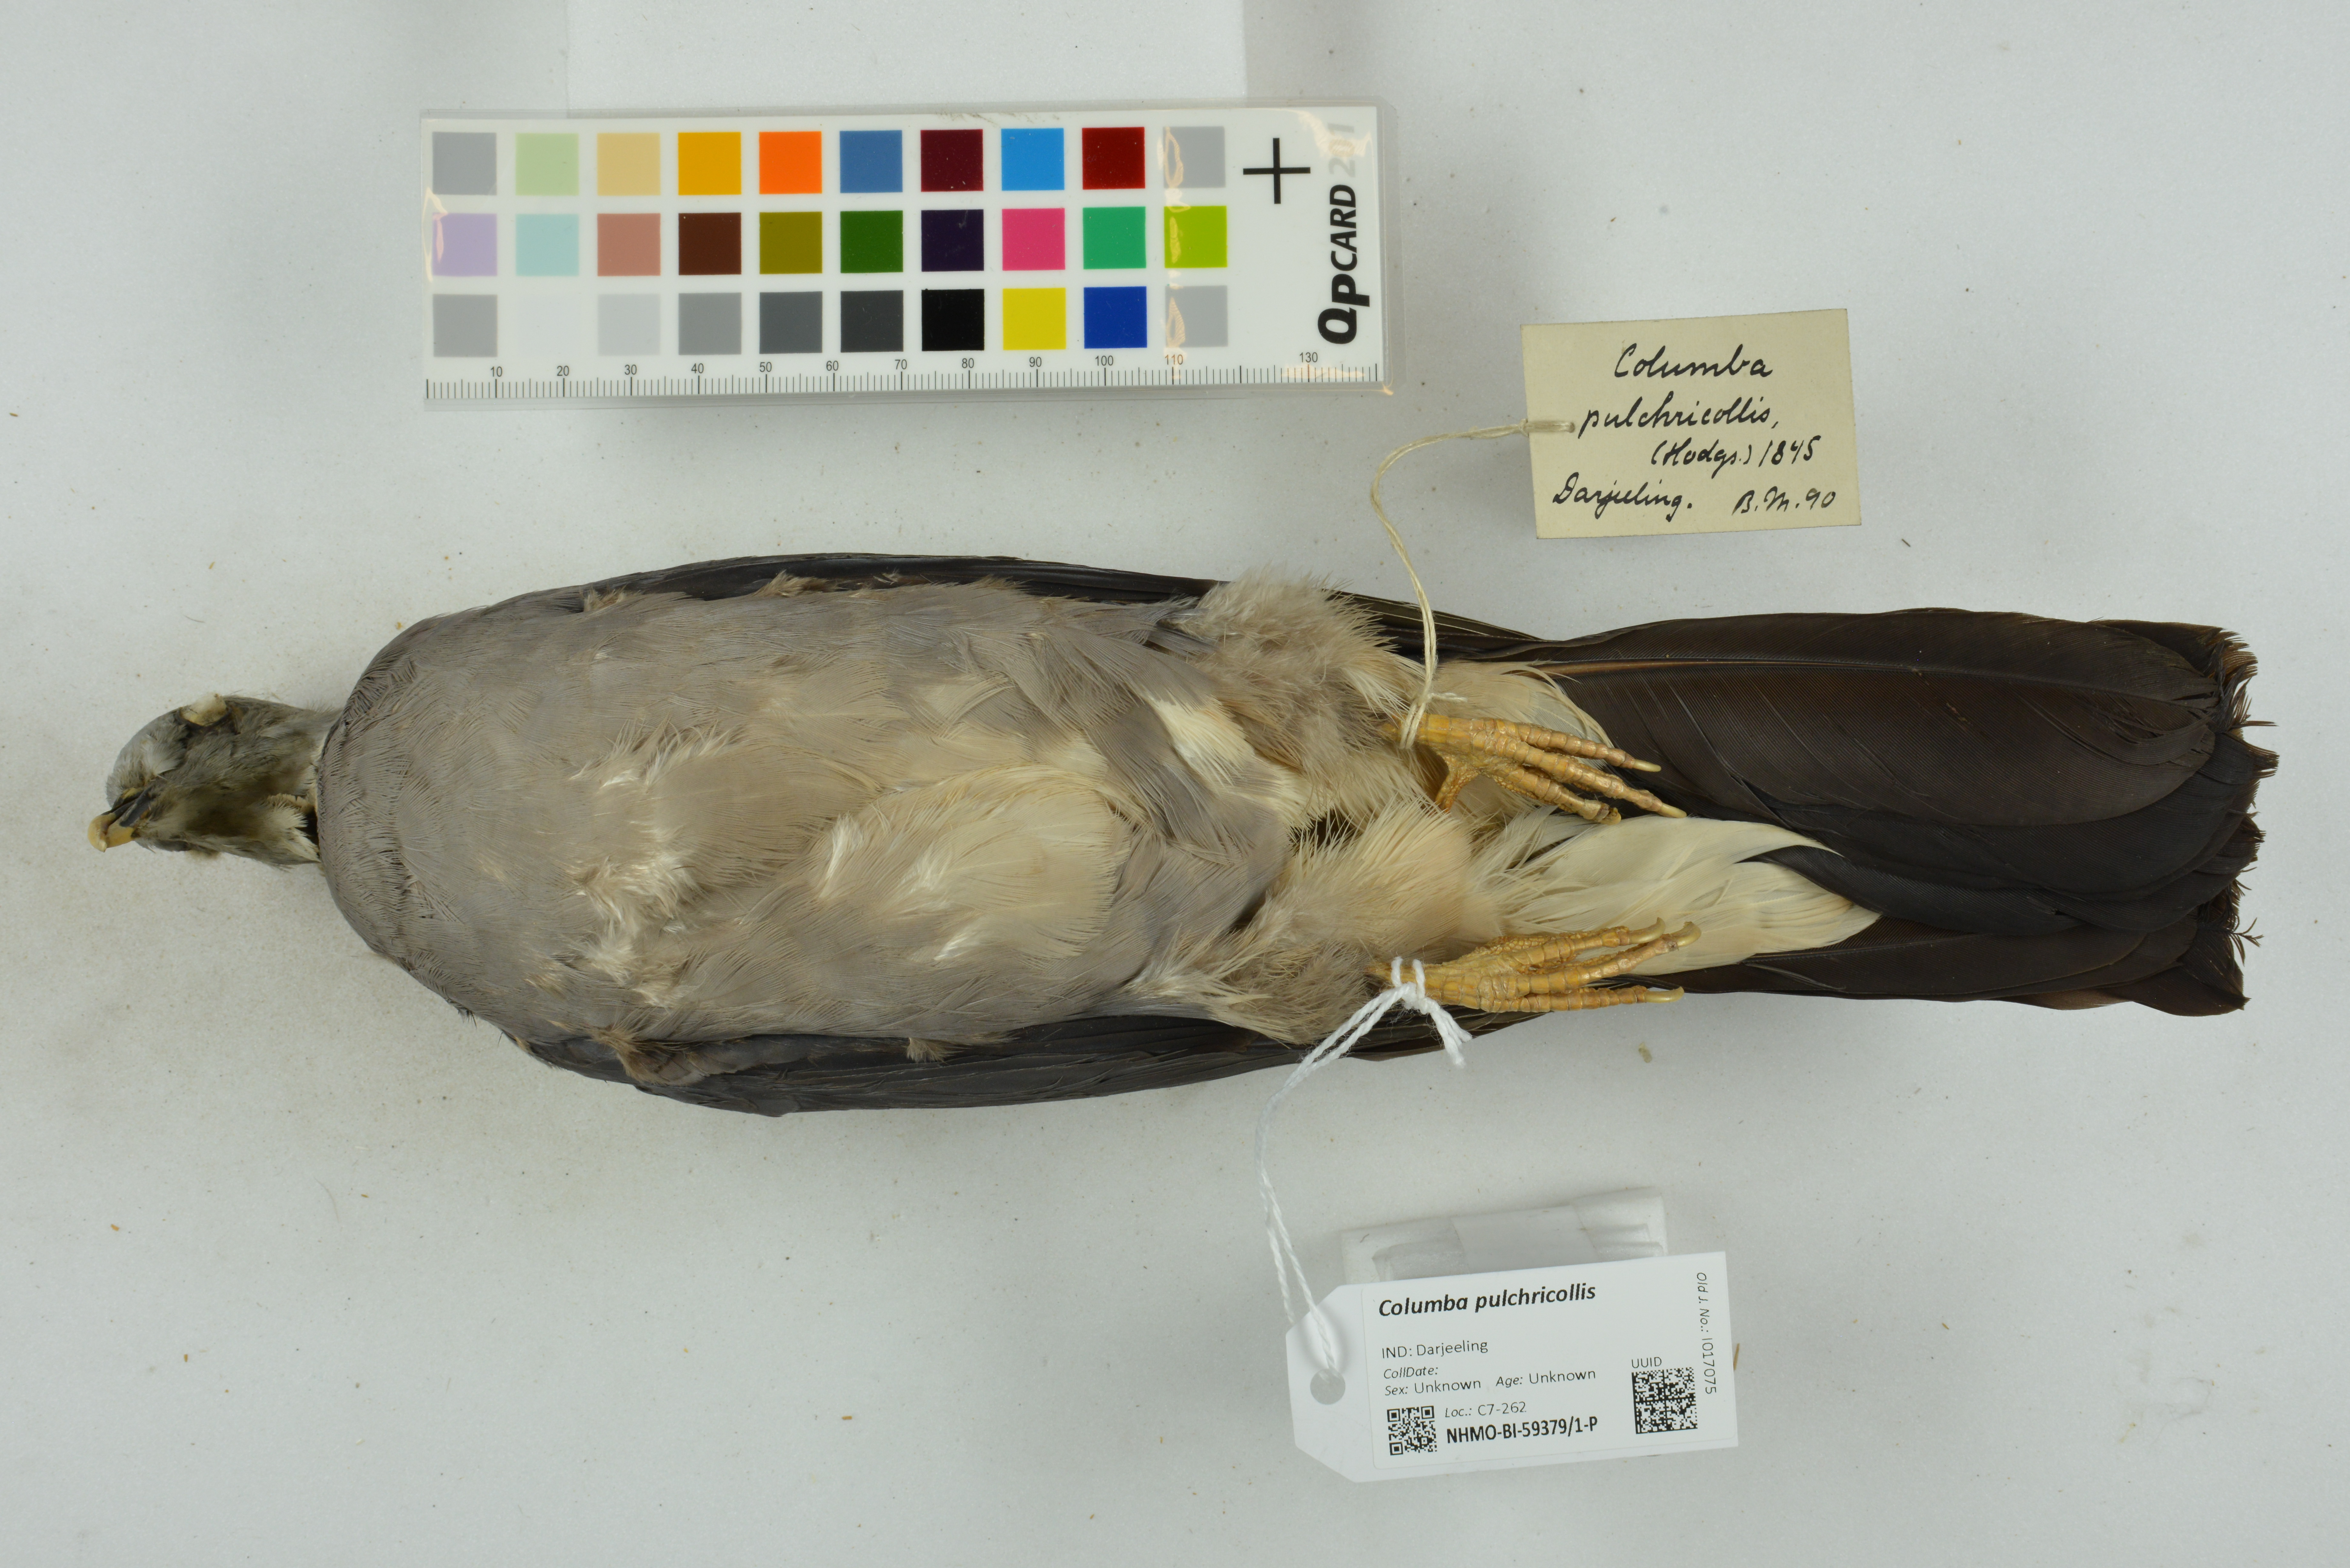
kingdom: Animalia
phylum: Chordata
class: Aves
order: Columbiformes
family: Columbidae
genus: Columba
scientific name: Columba pulchricollis
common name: Ashy wood pigeon
